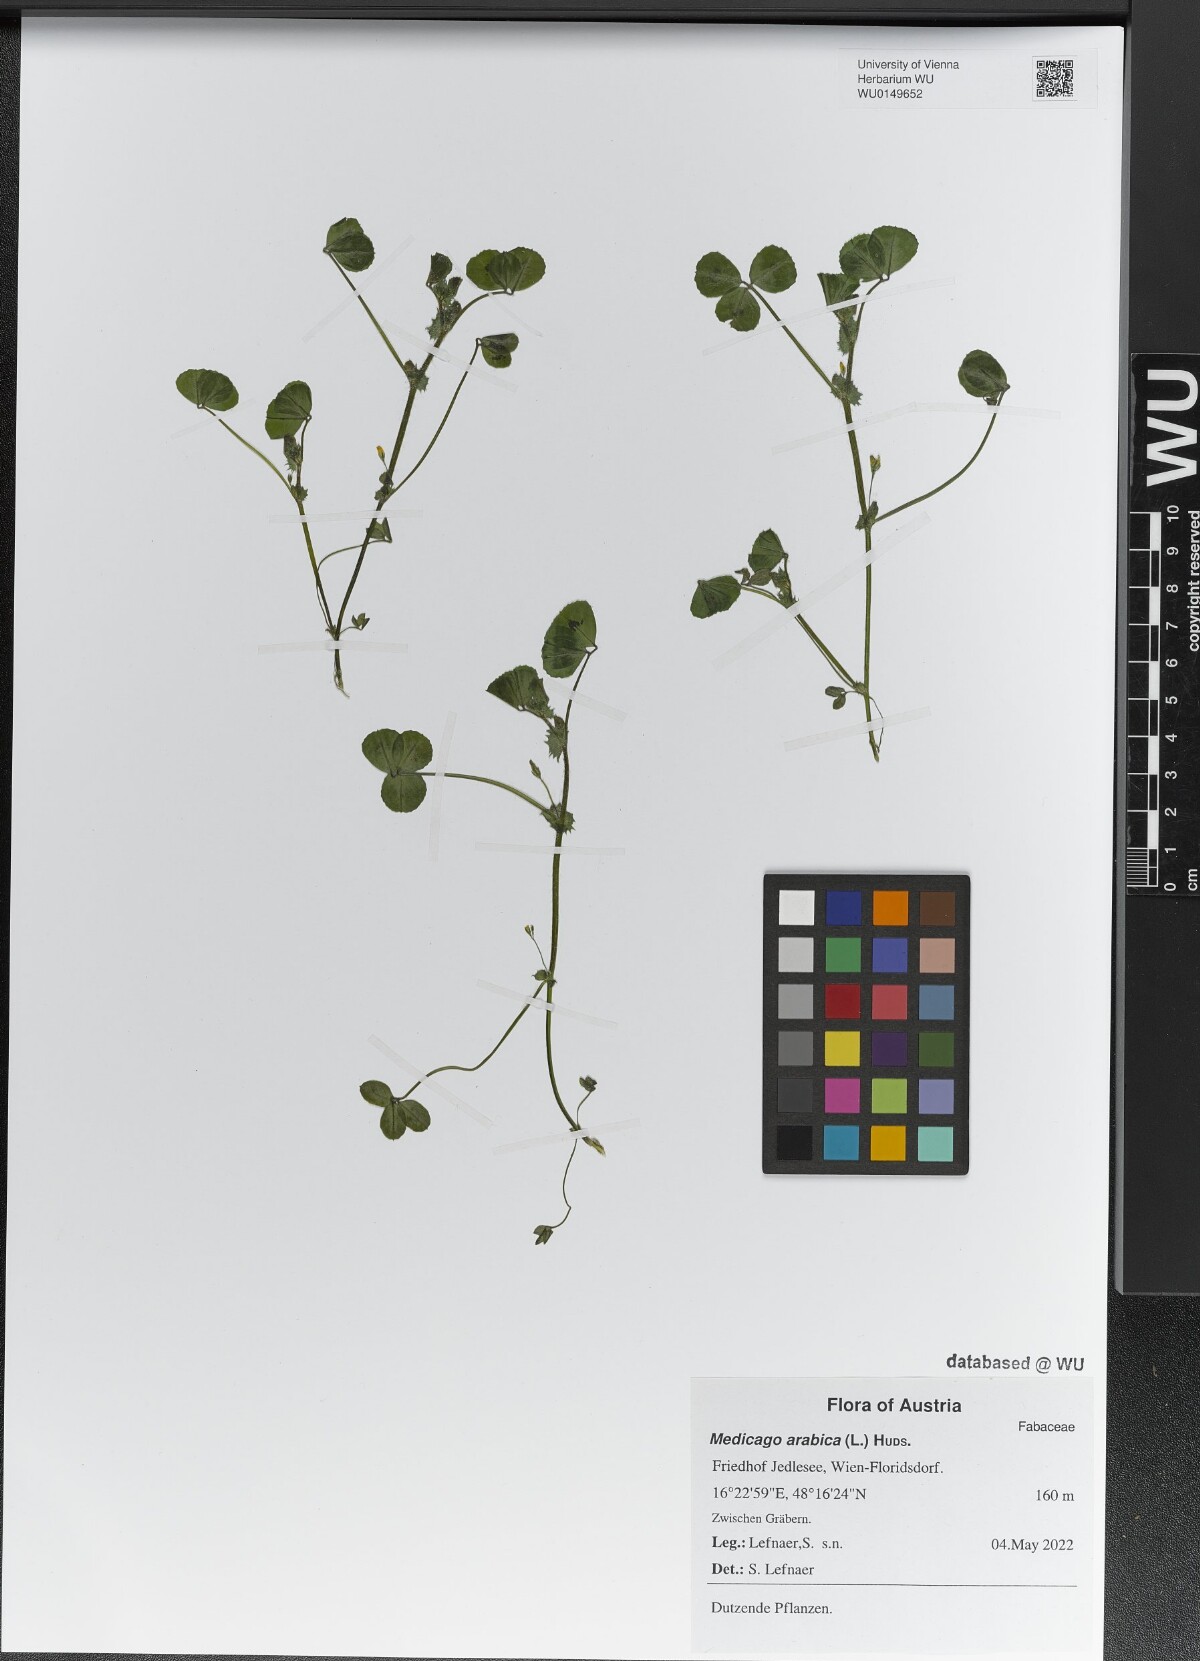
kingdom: Plantae
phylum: Tracheophyta
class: Magnoliopsida
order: Fabales
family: Fabaceae
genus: Medicago
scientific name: Medicago arabica
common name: Spotted medick
